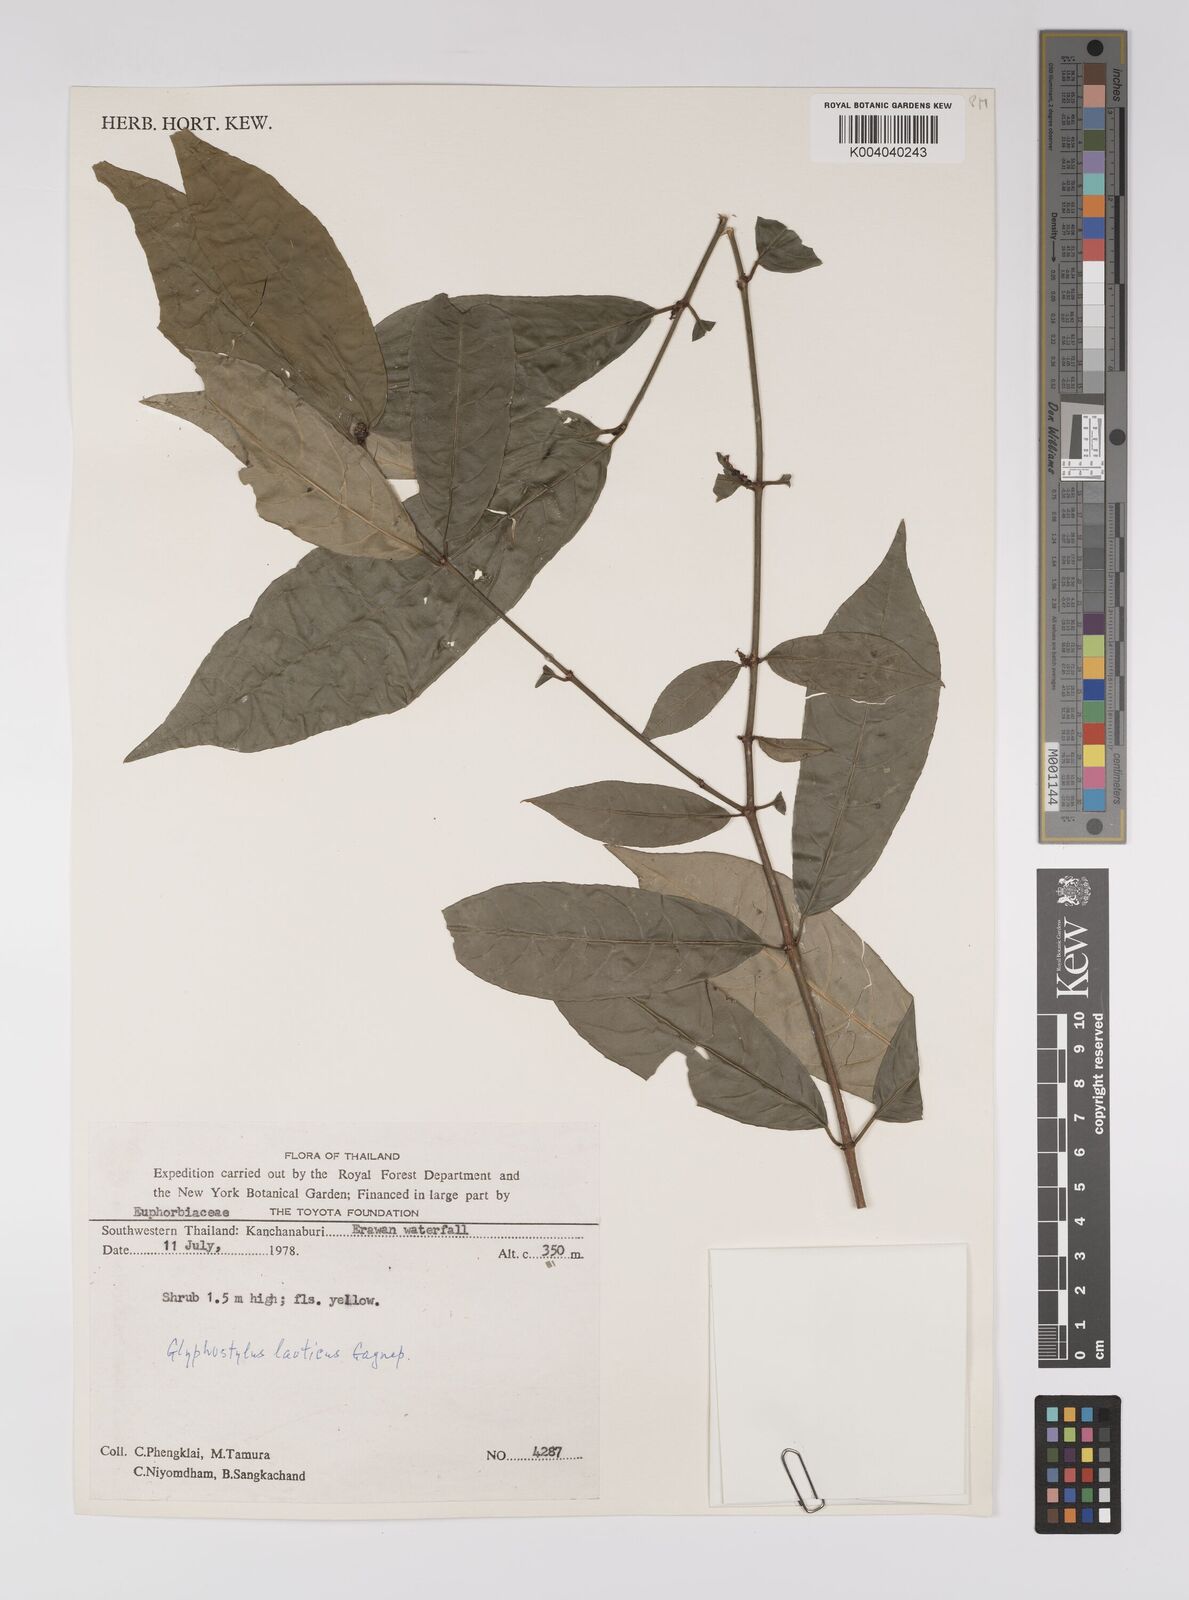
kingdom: Plantae
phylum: Tracheophyta
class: Magnoliopsida
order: Malpighiales
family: Euphorbiaceae
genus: Excoecaria
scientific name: Excoecaria laotica
